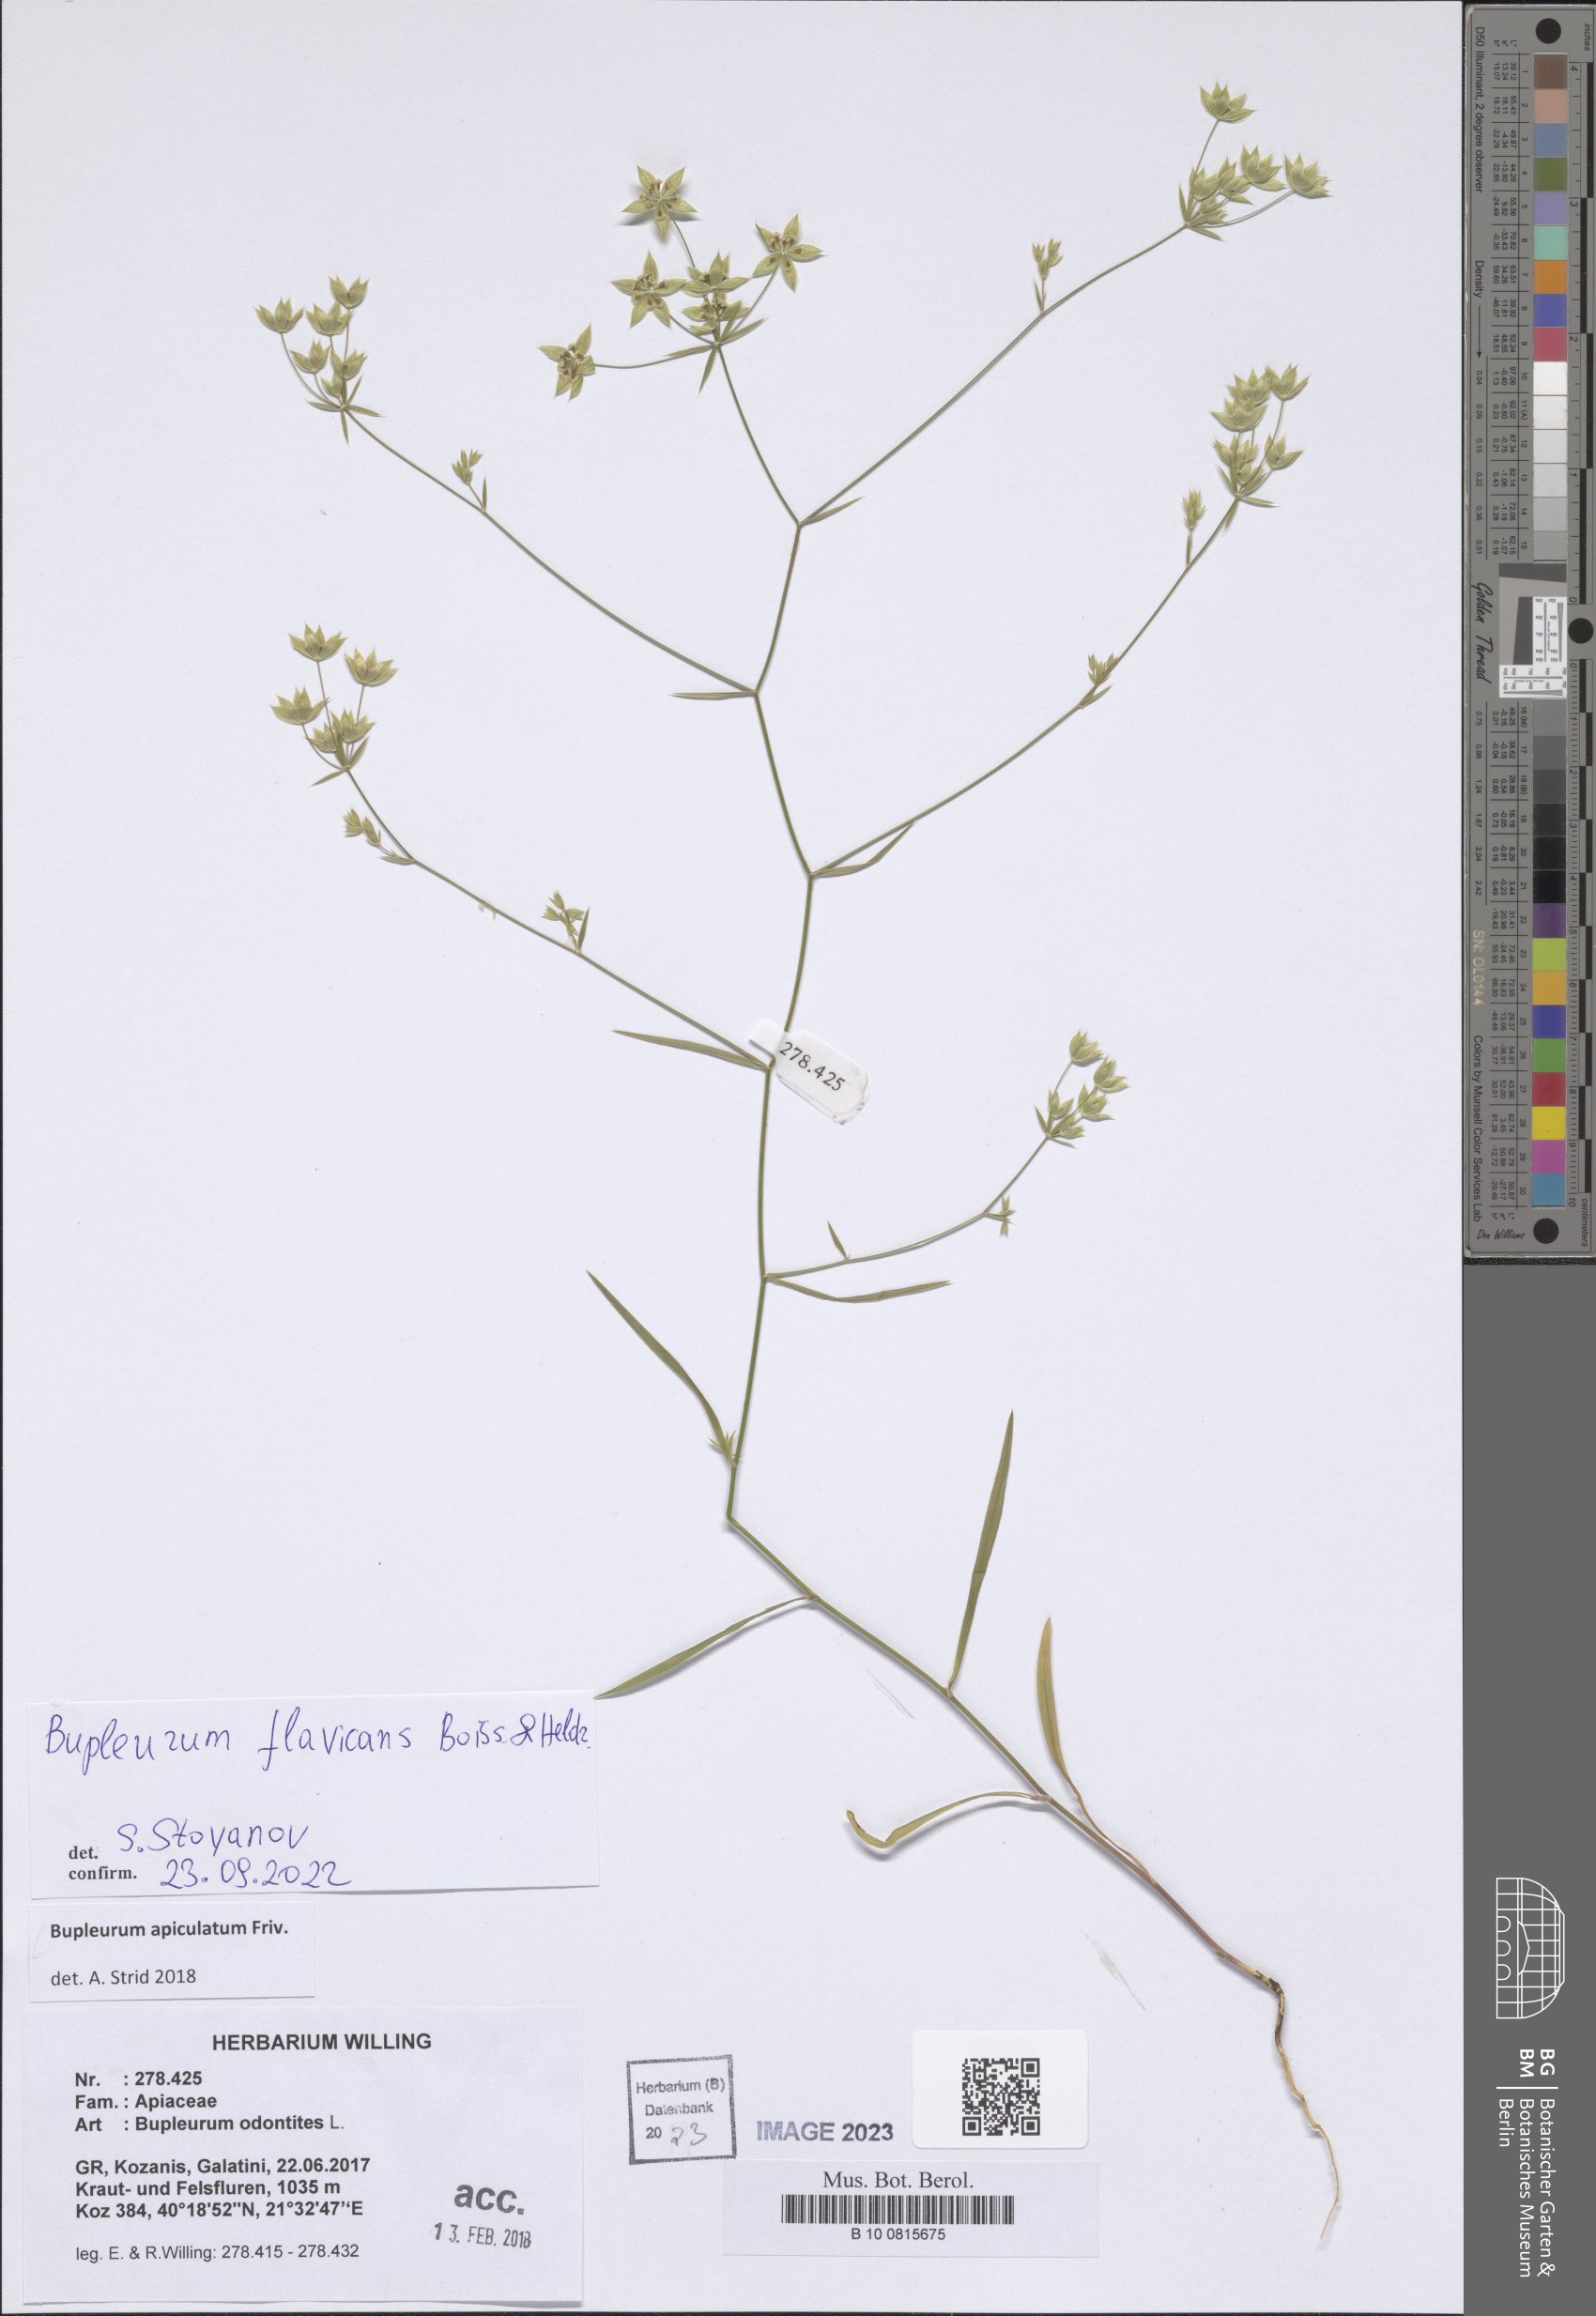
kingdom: Plantae
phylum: Tracheophyta
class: Magnoliopsida
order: Apiales
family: Apiaceae
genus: Bupleurum
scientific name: Bupleurum flavicans
